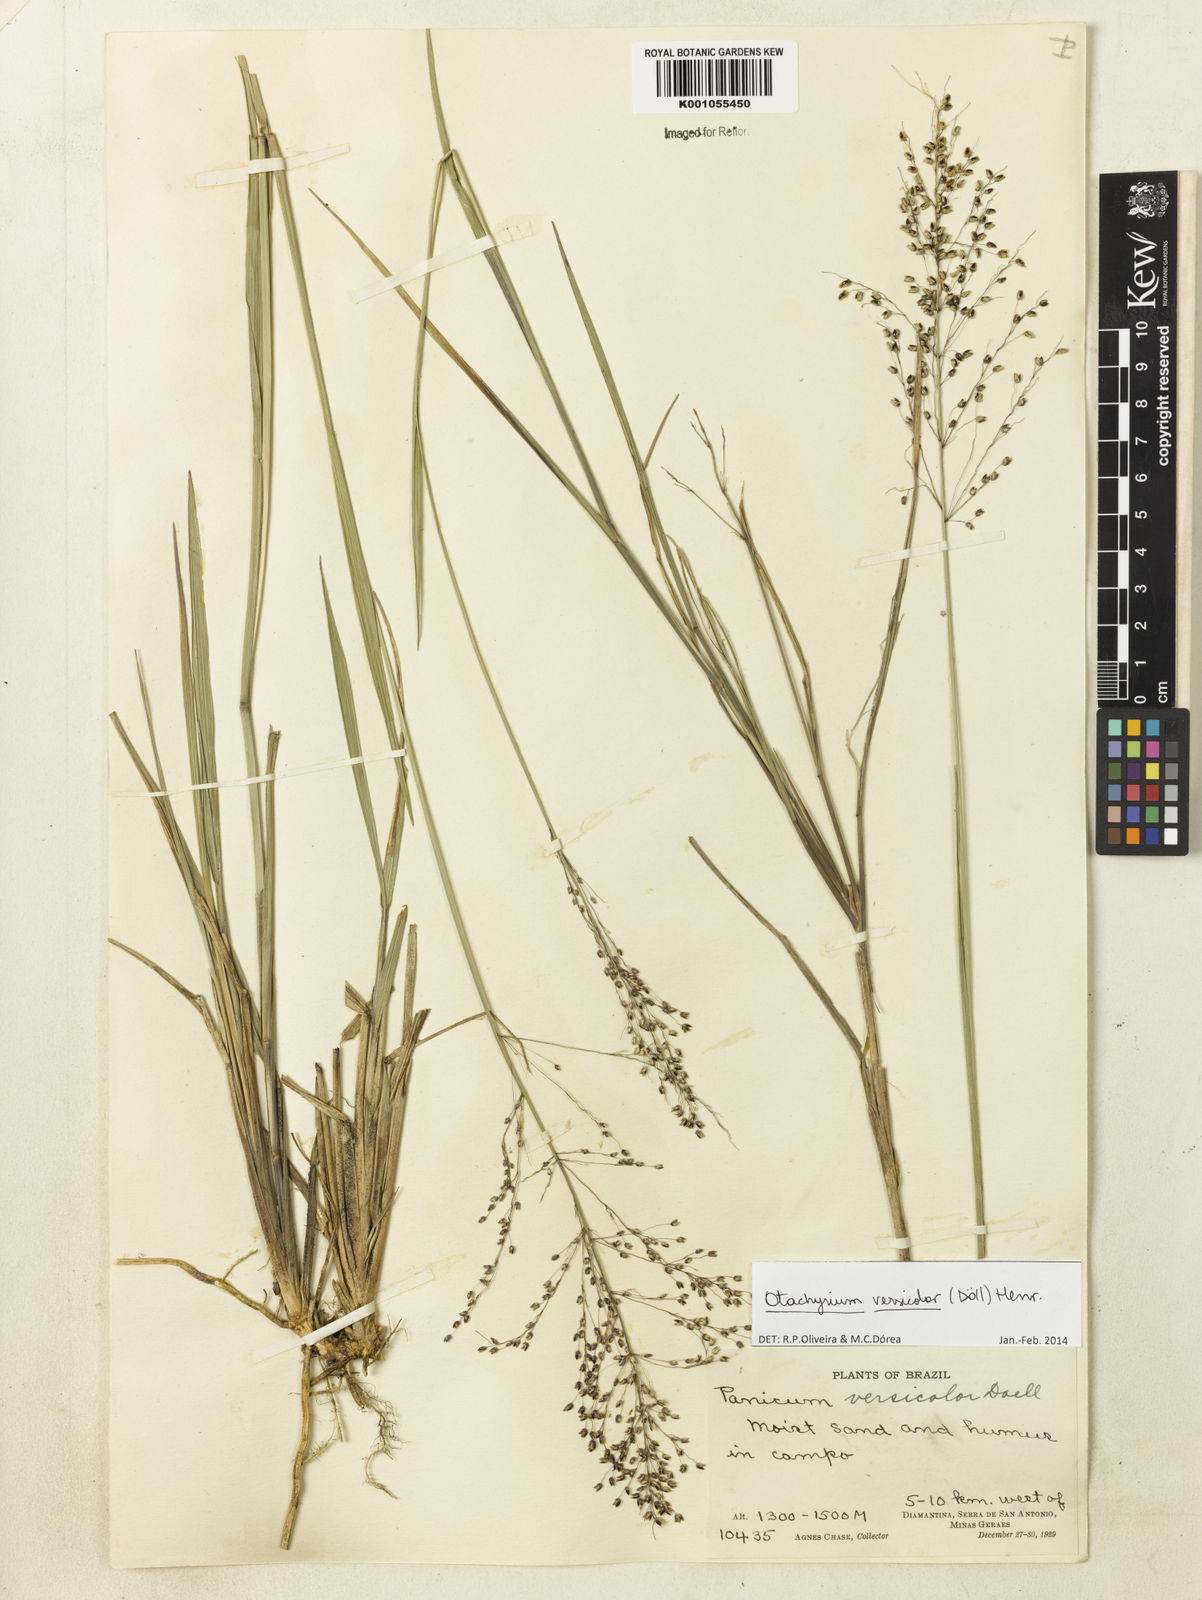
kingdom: Plantae
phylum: Tracheophyta
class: Liliopsida
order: Poales
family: Poaceae
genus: Otachyrium
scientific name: Otachyrium
